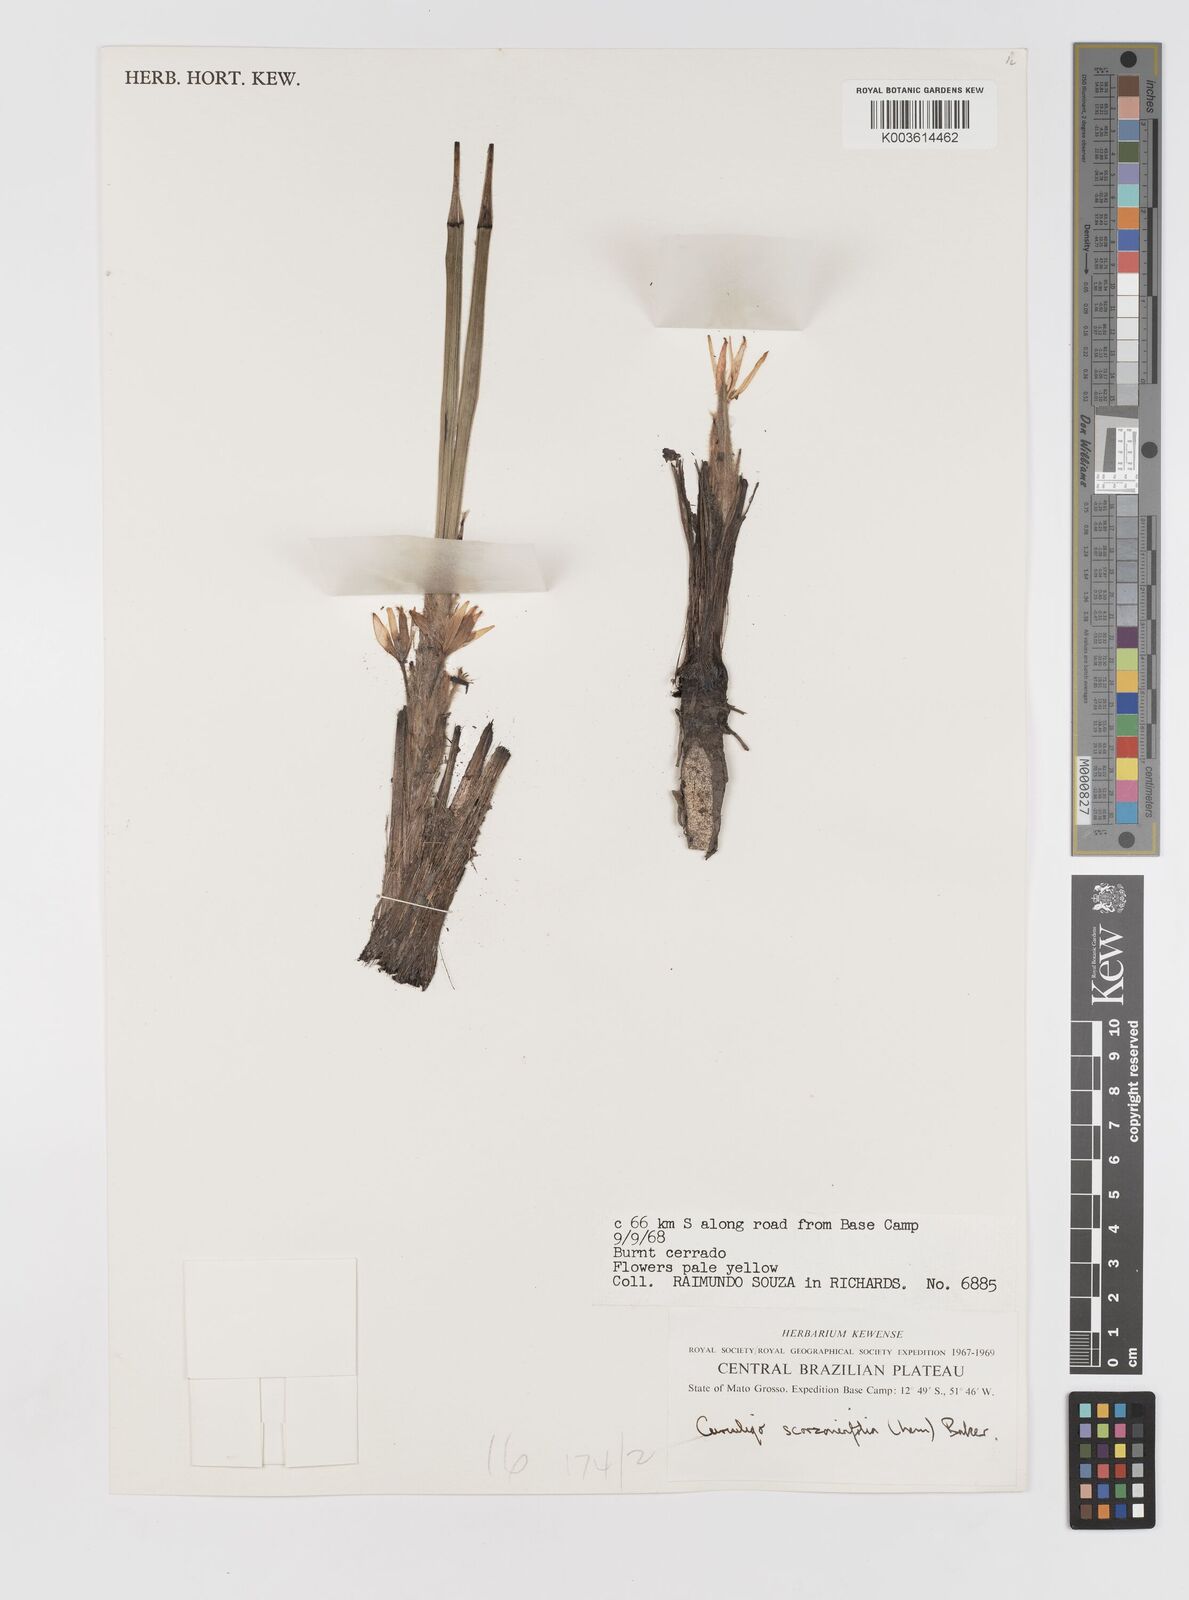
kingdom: Plantae
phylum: Tracheophyta
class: Liliopsida
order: Asparagales
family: Hypoxidaceae
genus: Curculigo
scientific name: Curculigo scorzonerifolia
